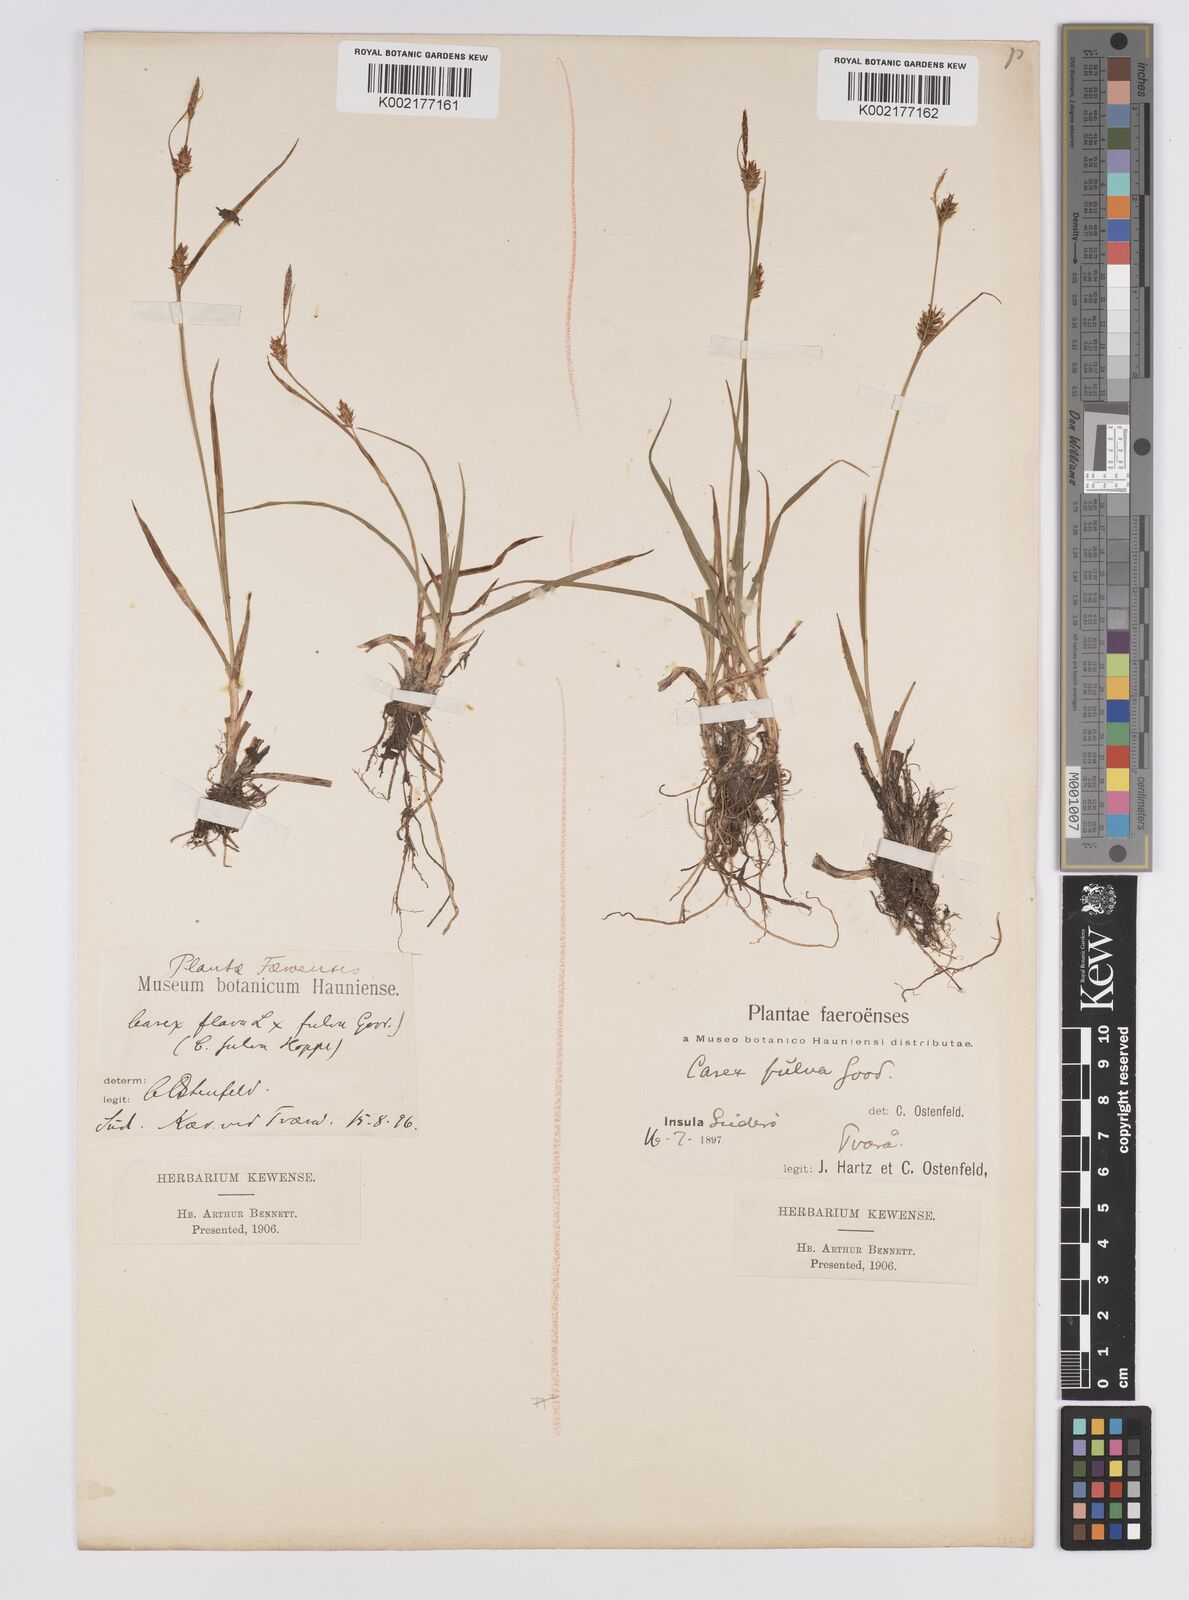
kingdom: Plantae
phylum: Tracheophyta
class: Liliopsida
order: Poales
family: Cyperaceae
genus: Carex
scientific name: Carex hostiana
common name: Tawny sedge
